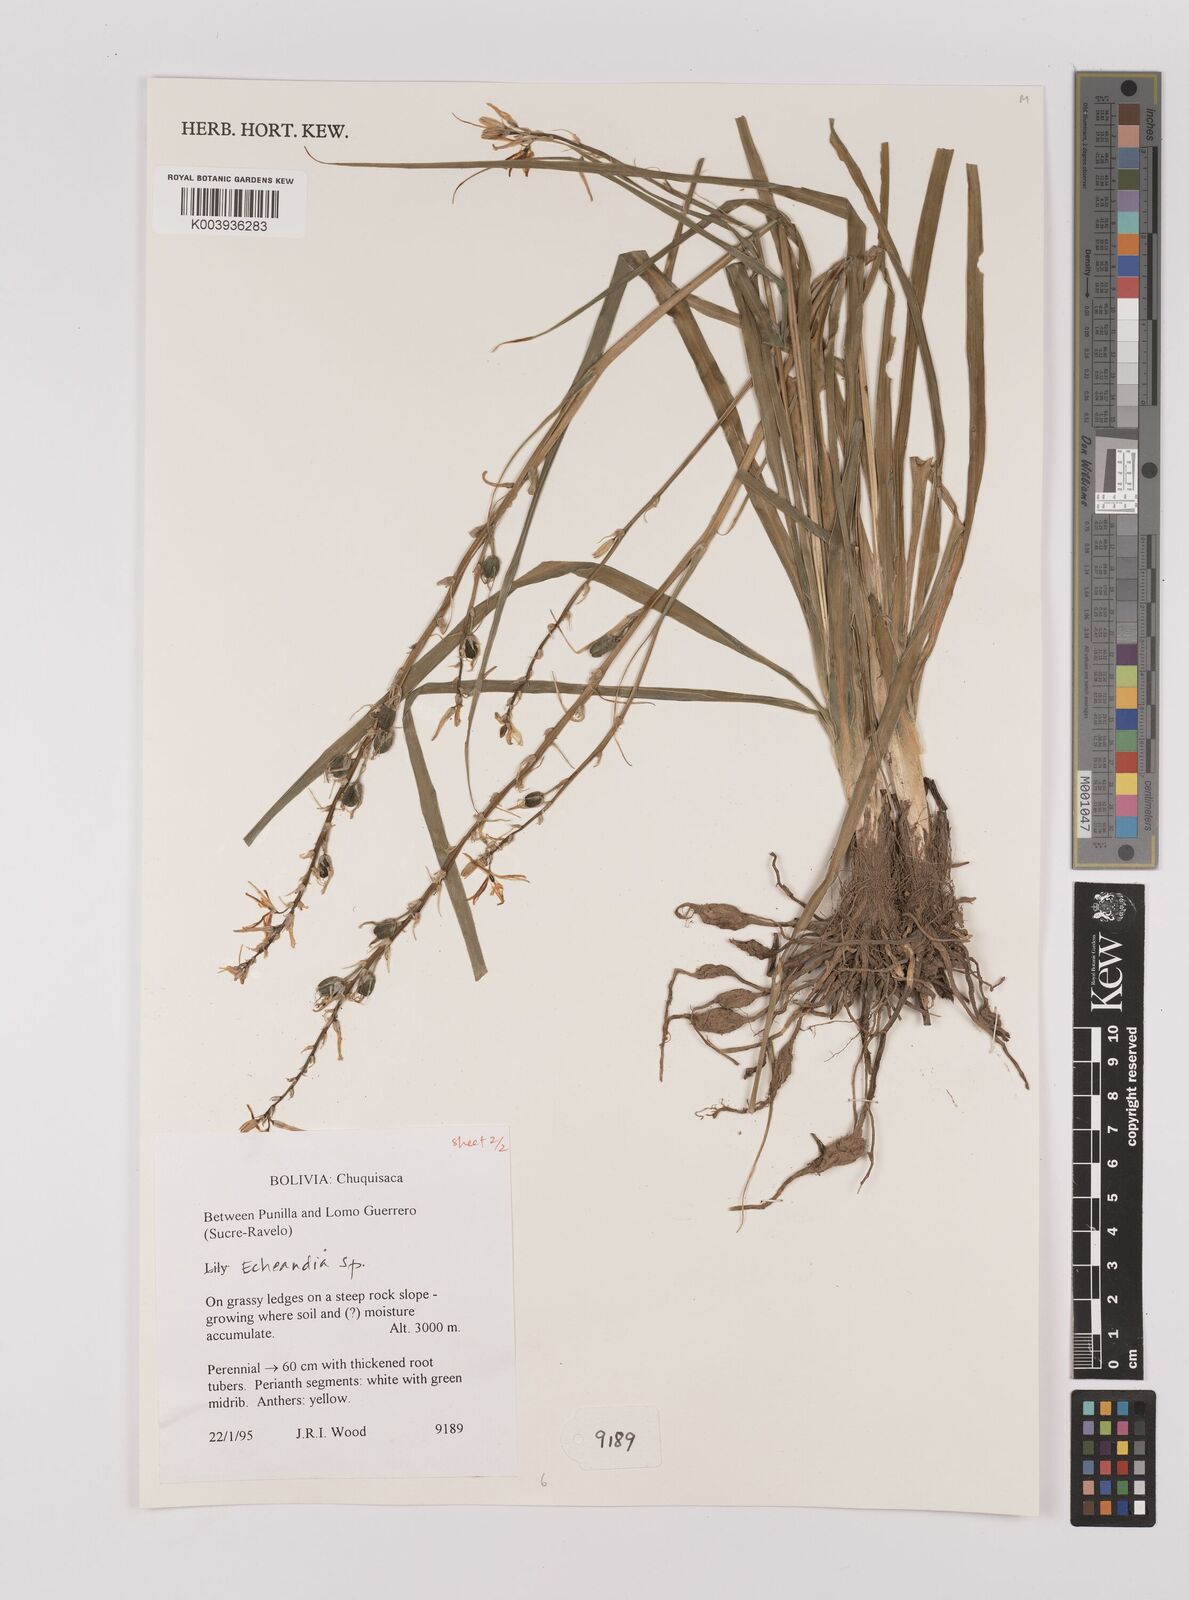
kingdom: Plantae
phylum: Tracheophyta
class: Liliopsida
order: Asparagales
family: Asparagaceae
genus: Echeandia
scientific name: Echeandia
